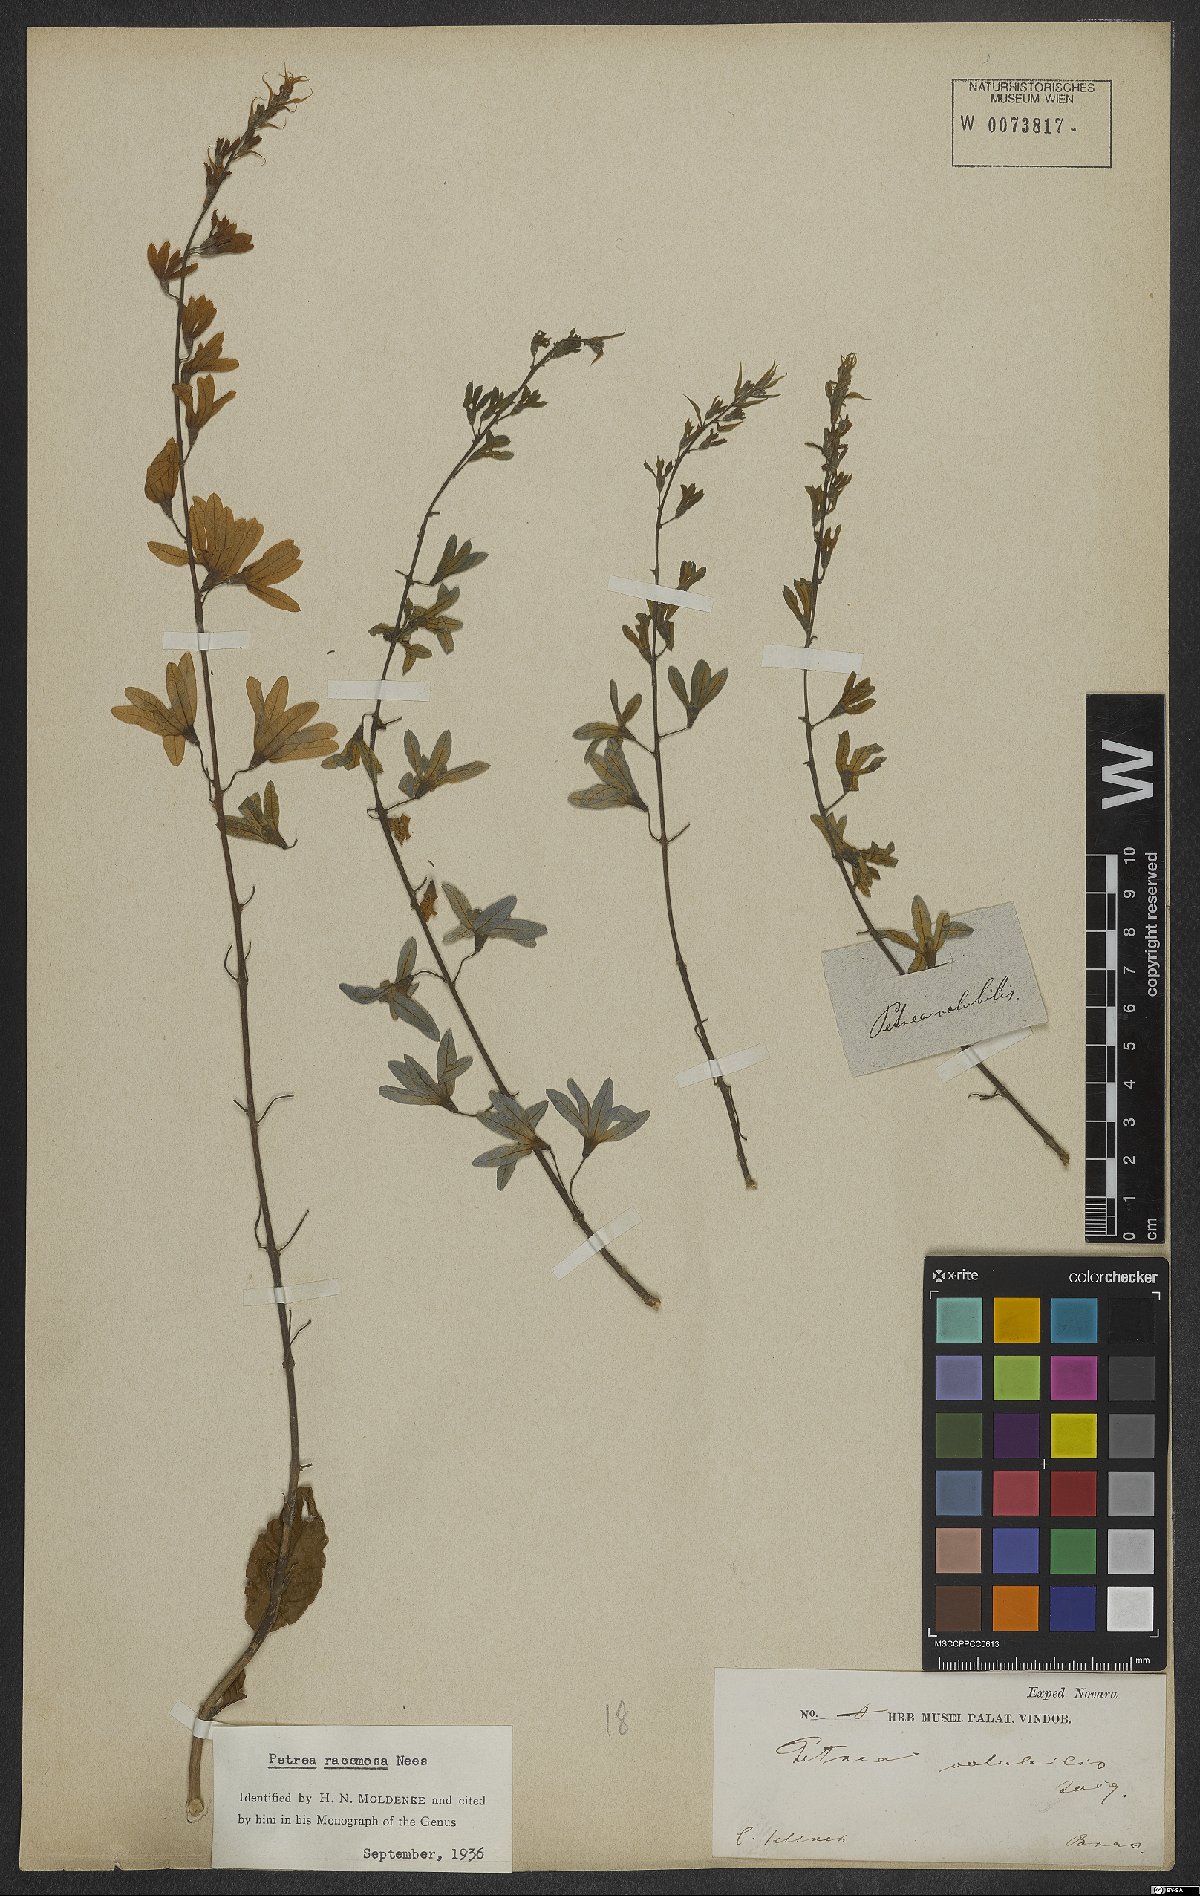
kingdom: Plantae
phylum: Tracheophyta
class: Magnoliopsida
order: Lamiales
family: Verbenaceae
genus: Petrea
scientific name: Petrea volubilis
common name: Queen's-wreath
